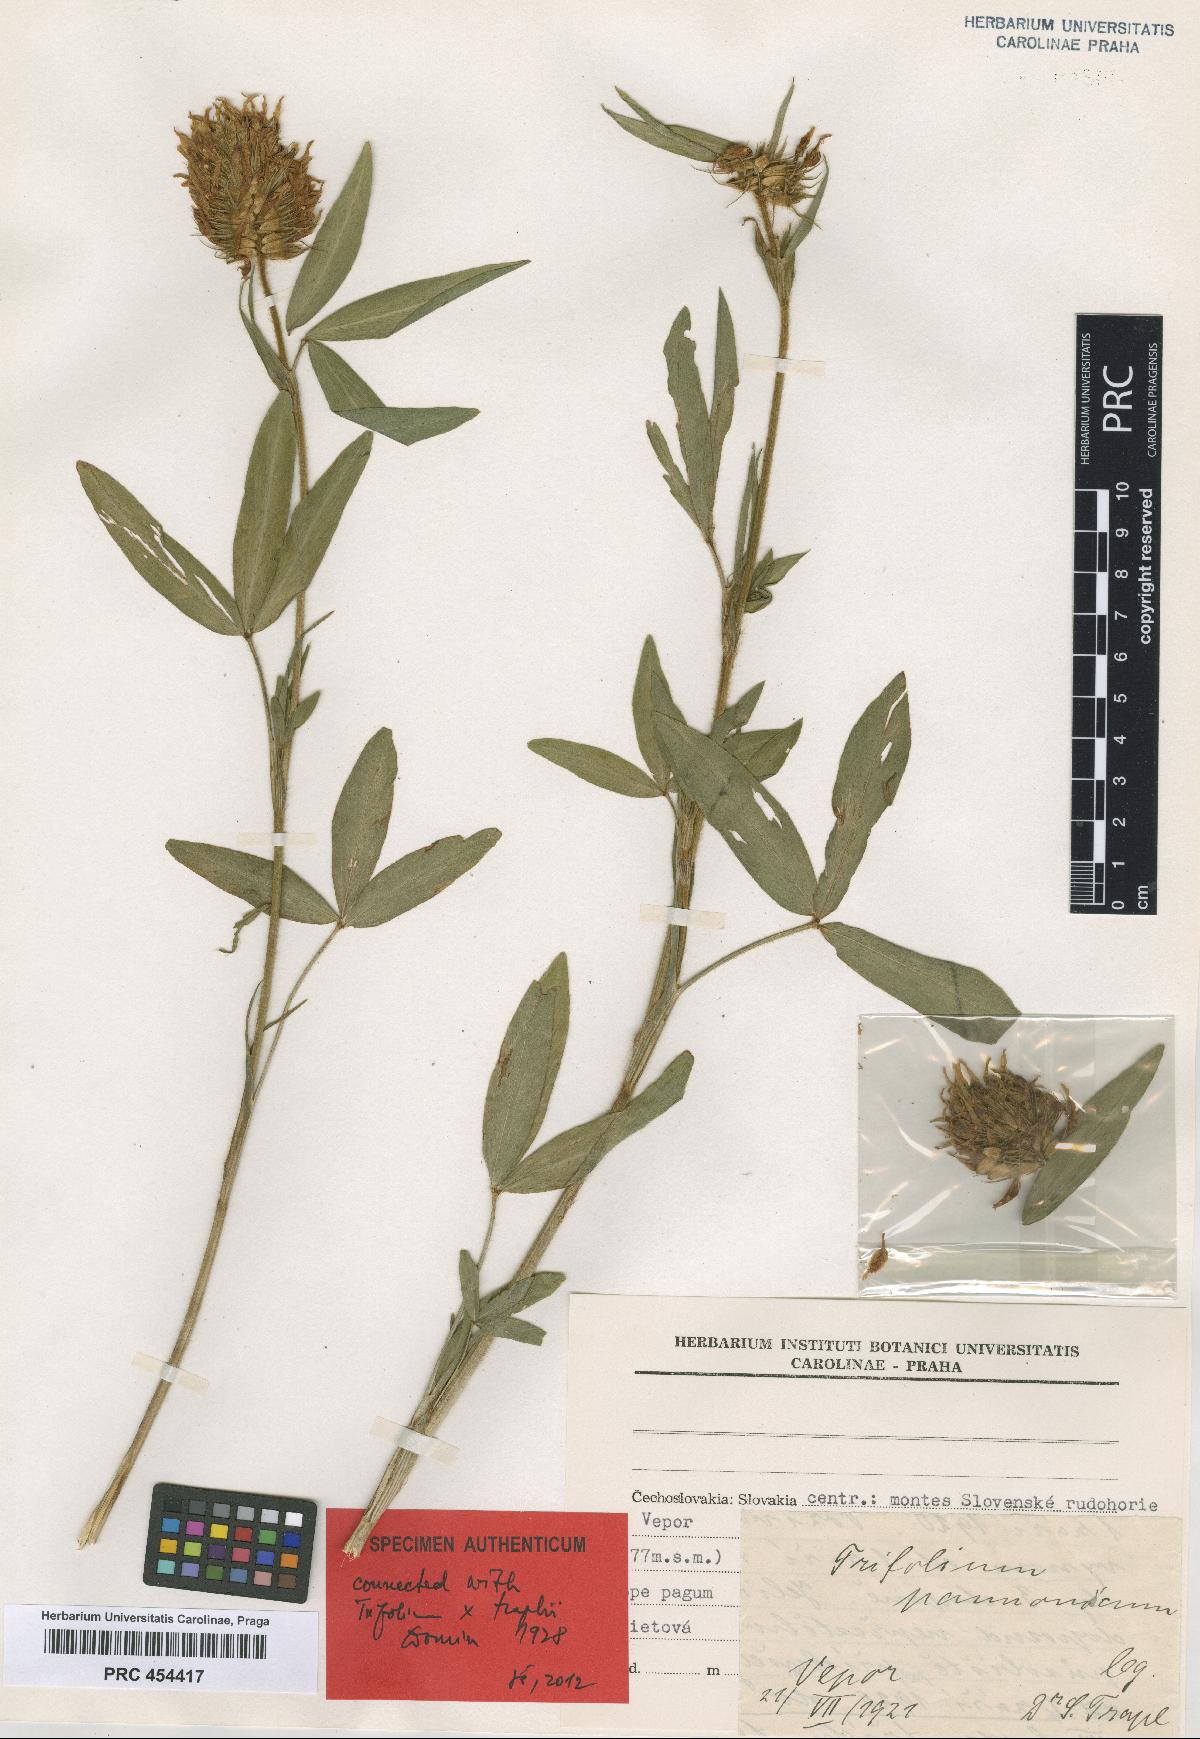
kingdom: Plantae
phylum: Tracheophyta
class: Magnoliopsida
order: Fabales
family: Fabaceae
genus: Trifolium
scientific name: Trifolium traplii
